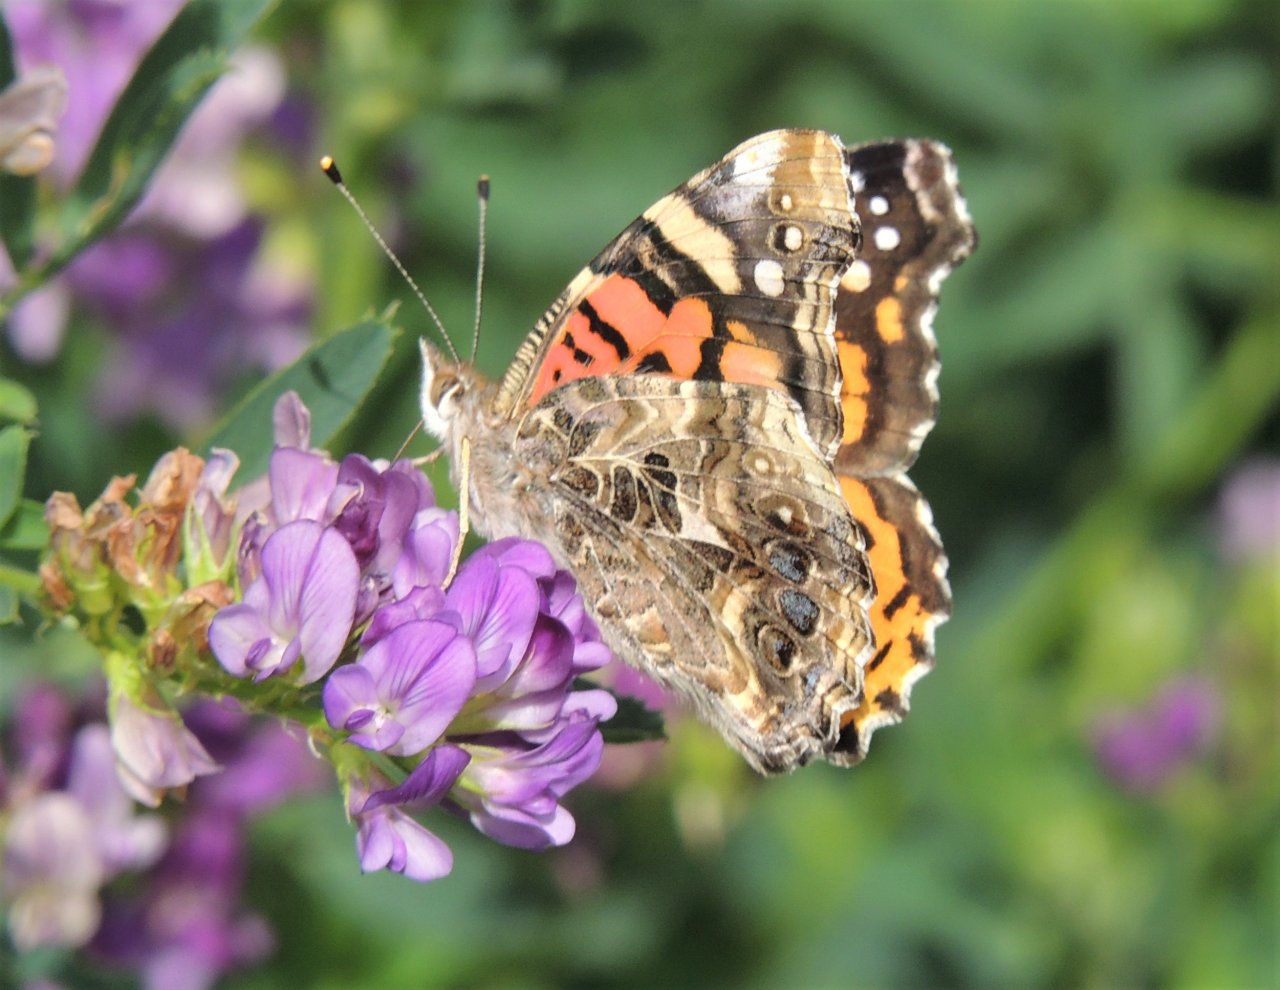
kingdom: Animalia
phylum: Arthropoda
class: Insecta
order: Lepidoptera
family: Nymphalidae
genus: Vanessa
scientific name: Vanessa annabella
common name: West Coast Lady
